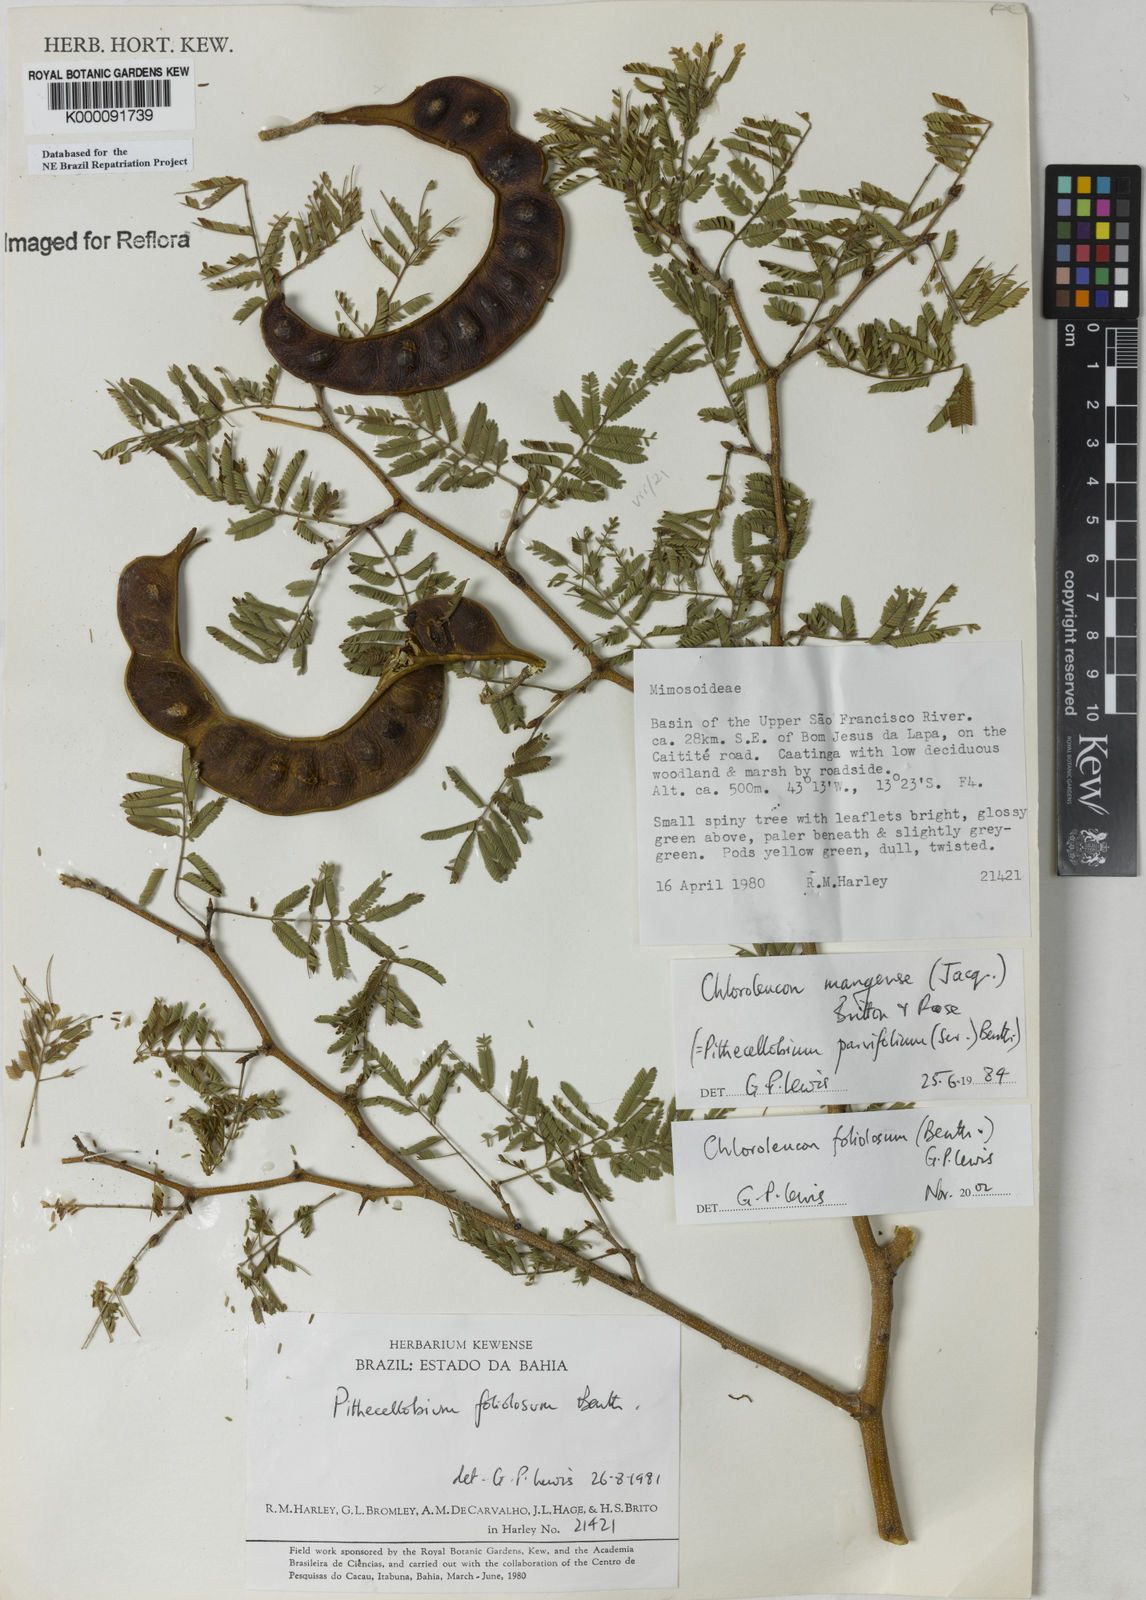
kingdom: Plantae
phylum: Tracheophyta
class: Magnoliopsida
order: Fabales
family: Fabaceae
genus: Chloroleucon
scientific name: Chloroleucon foliolosum
